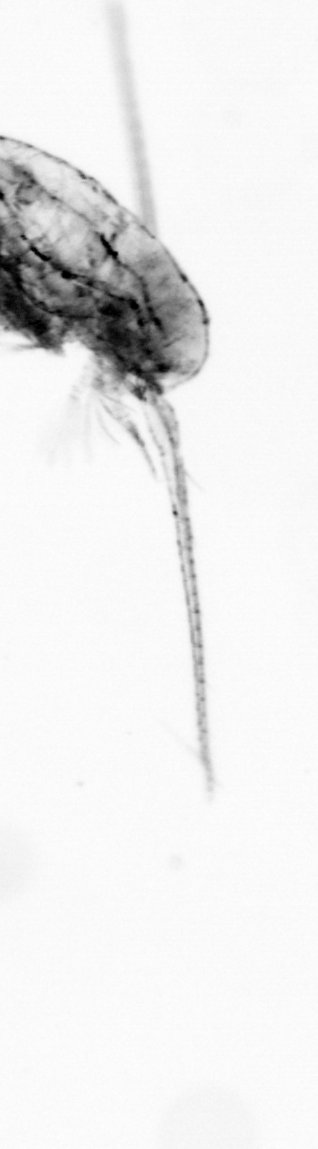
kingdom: Animalia
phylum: Arthropoda
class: Copepoda
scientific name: Copepoda
